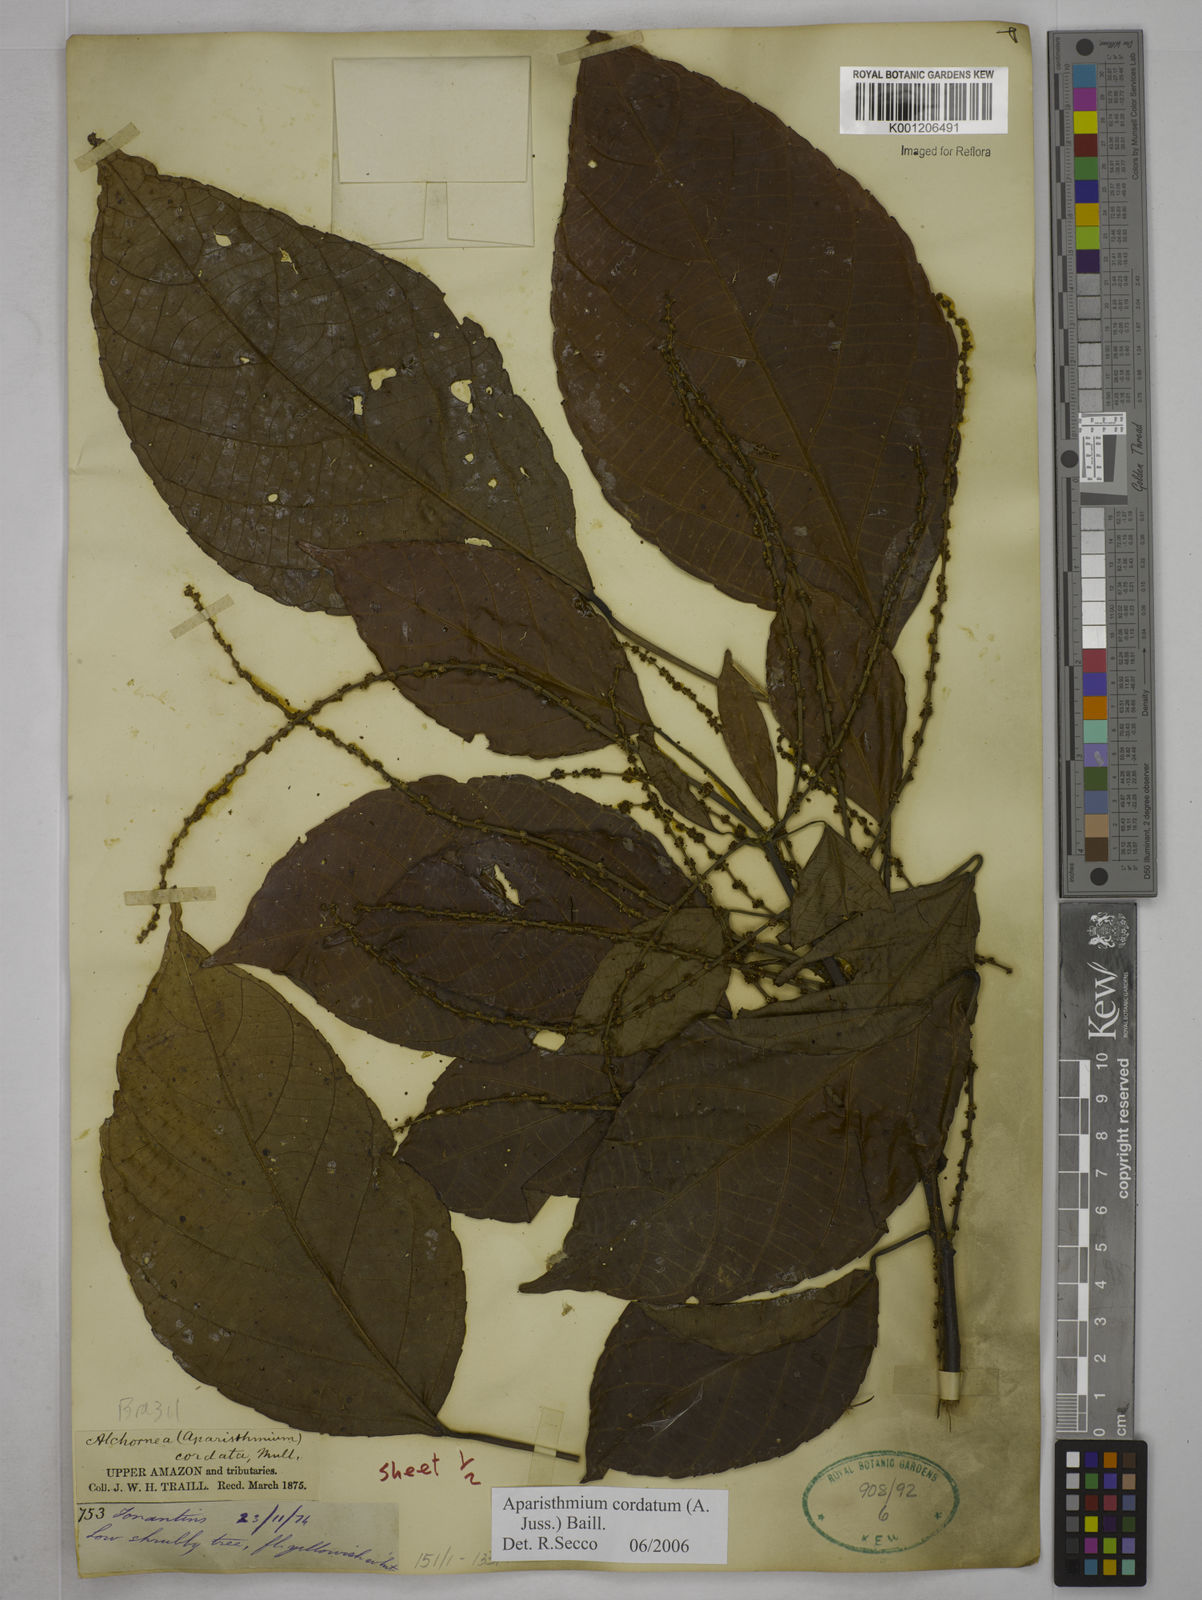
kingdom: Plantae
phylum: Tracheophyta
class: Magnoliopsida
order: Malpighiales
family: Euphorbiaceae
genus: Aparisthmium
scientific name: Aparisthmium cordatum
